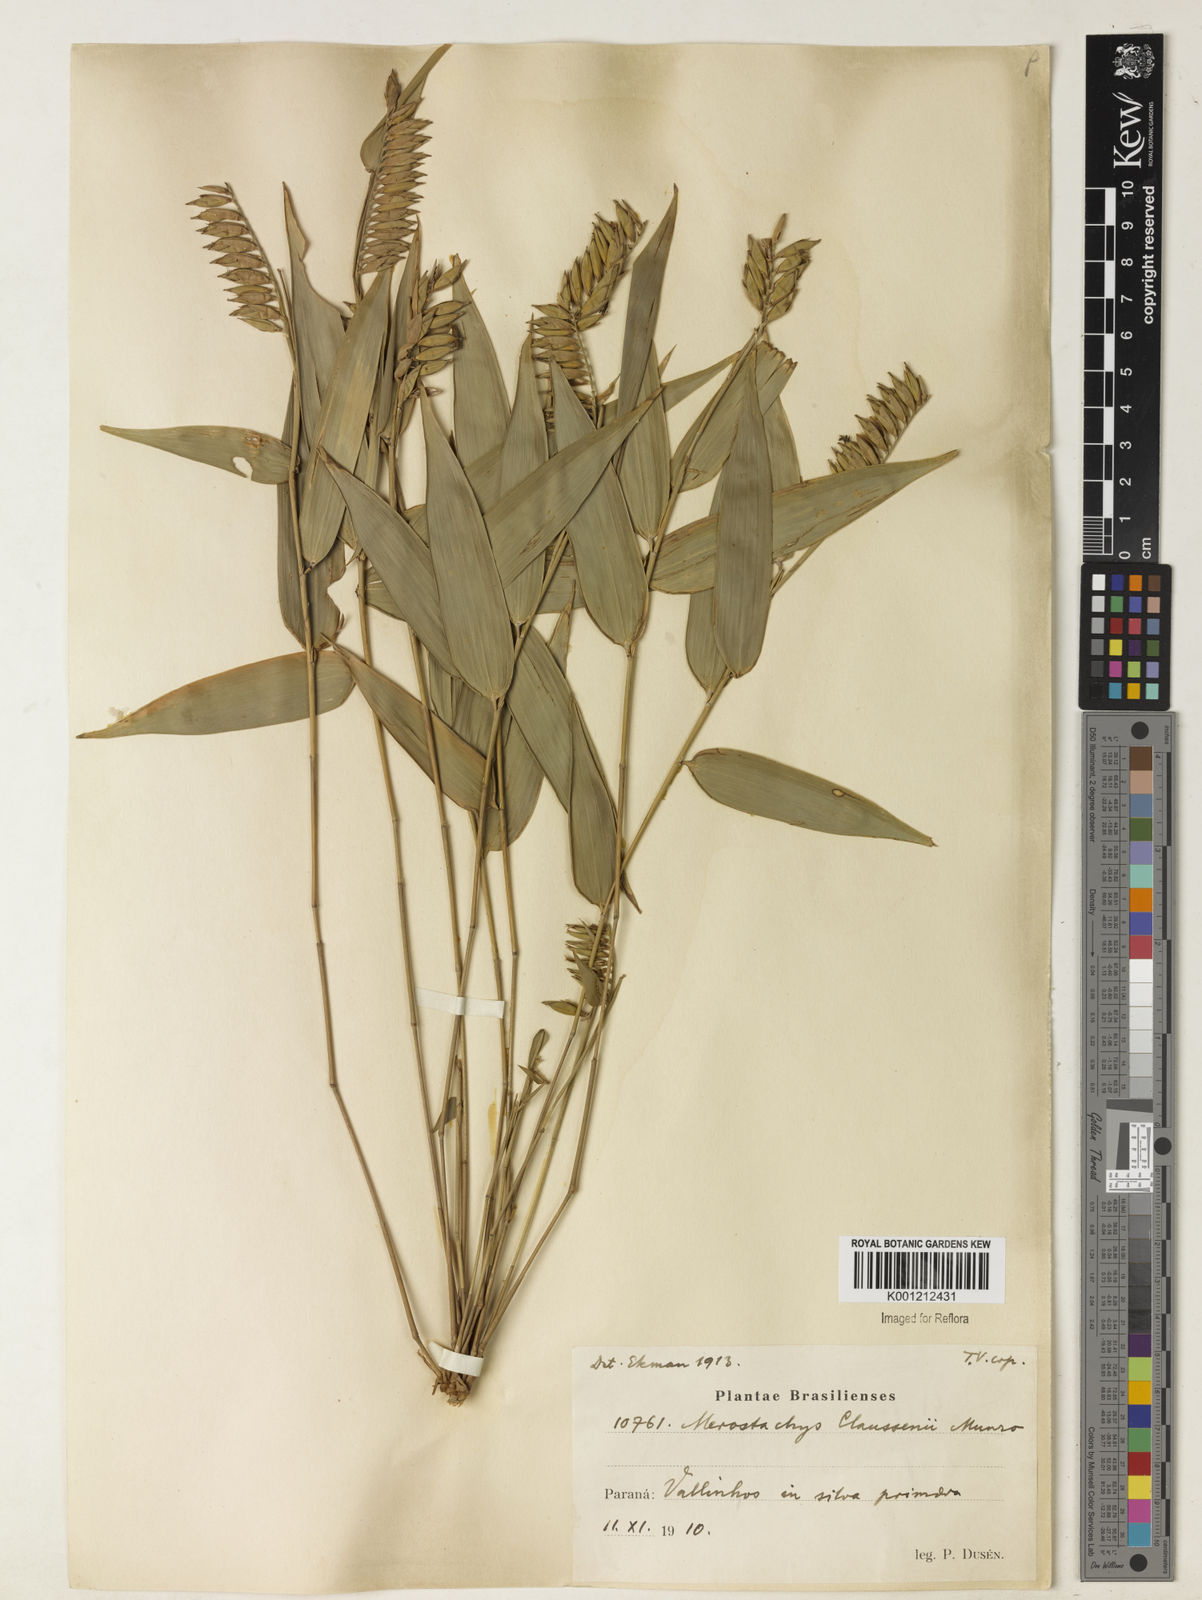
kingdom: Plantae
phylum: Tracheophyta
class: Liliopsida
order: Poales
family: Poaceae
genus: Merostachys
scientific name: Merostachys multiramea
